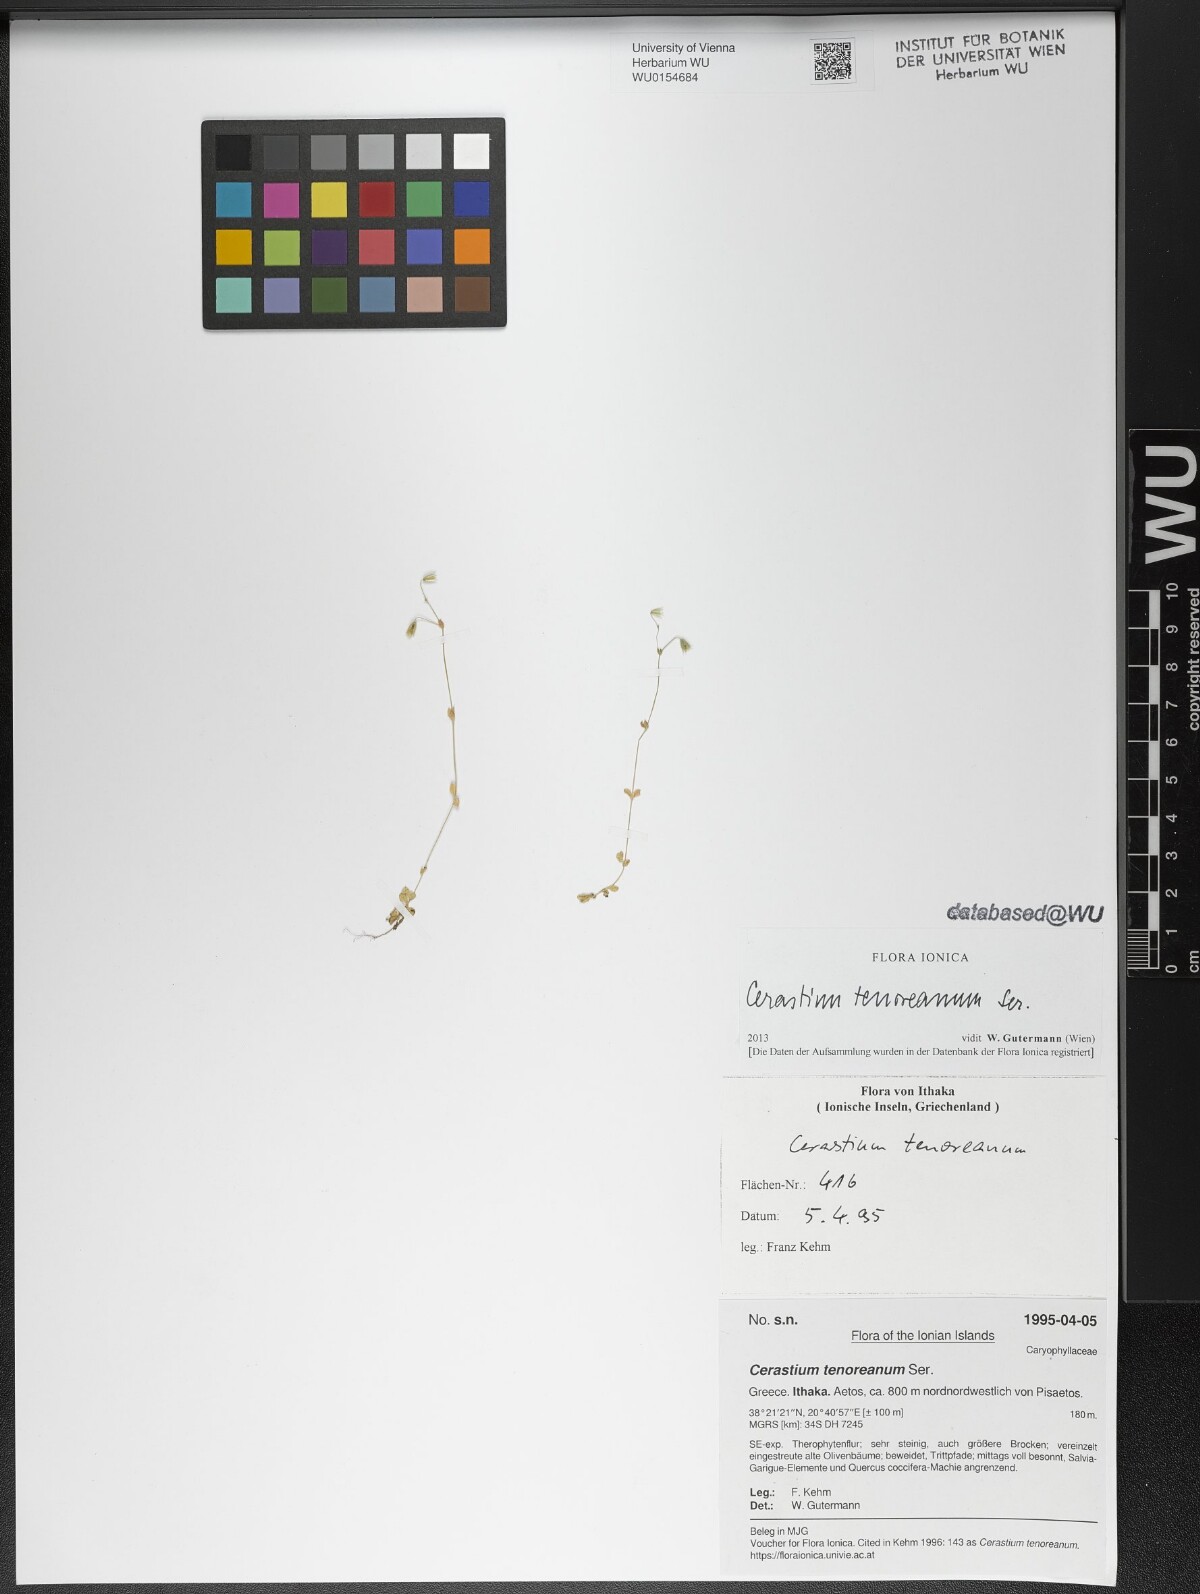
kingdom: Plantae
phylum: Tracheophyta
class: Magnoliopsida
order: Caryophyllales
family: Caryophyllaceae
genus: Cerastium
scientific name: Cerastium tenoreanum
